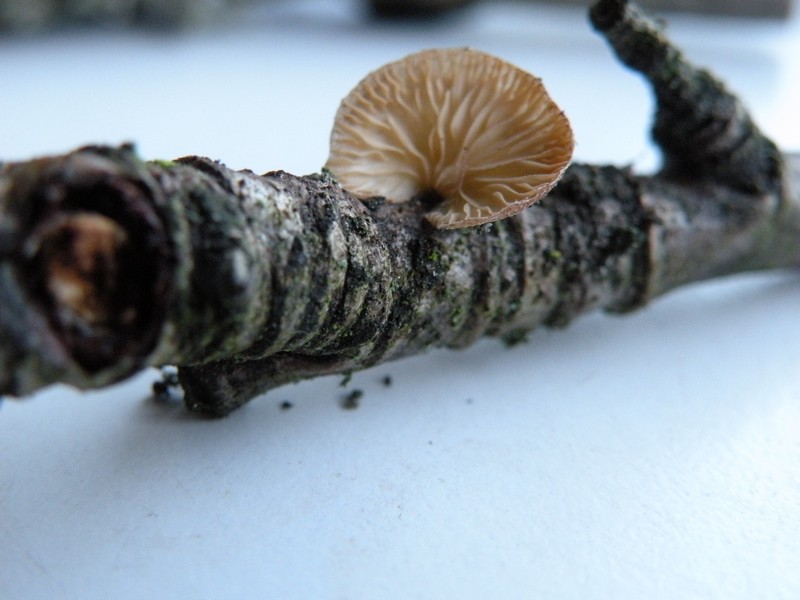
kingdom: Fungi
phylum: Basidiomycota
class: Agaricomycetes
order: Agaricales
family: Pleurotaceae
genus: Hohenbuehelia
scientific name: Hohenbuehelia fluxilis
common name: pile-filthat
